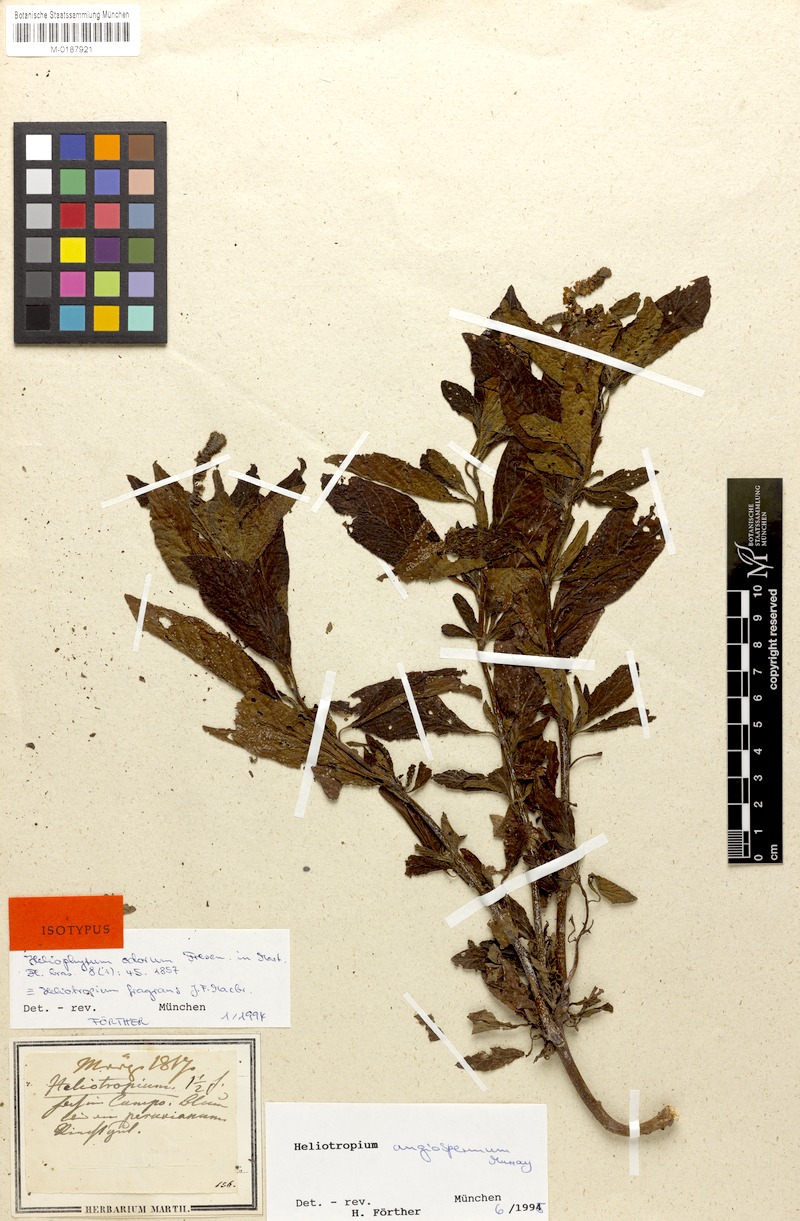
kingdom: Plantae
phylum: Tracheophyta
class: Magnoliopsida
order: Boraginales
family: Heliotropiaceae
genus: Heliotropium
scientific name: Heliotropium angiospermum
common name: Eye bright
